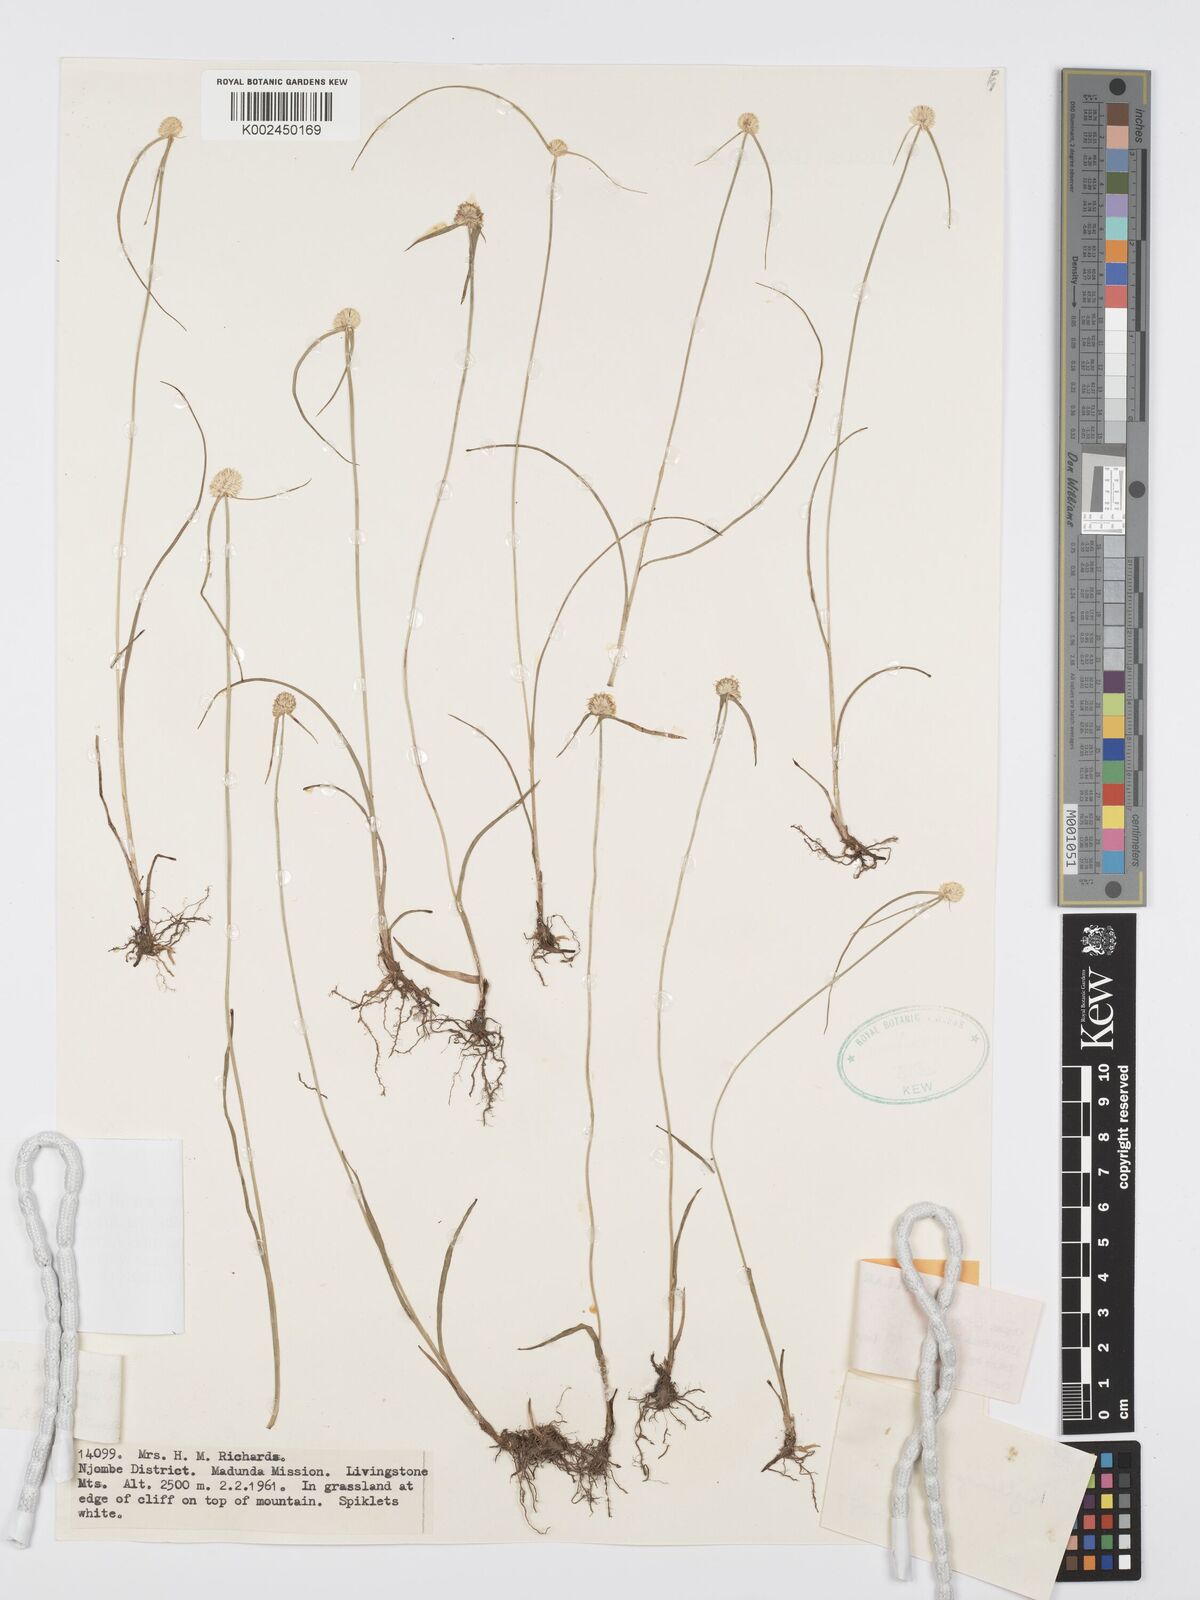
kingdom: Plantae
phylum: Tracheophyta
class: Liliopsida
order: Poales
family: Cyperaceae
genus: Cyperus
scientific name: Cyperus albogracilis
